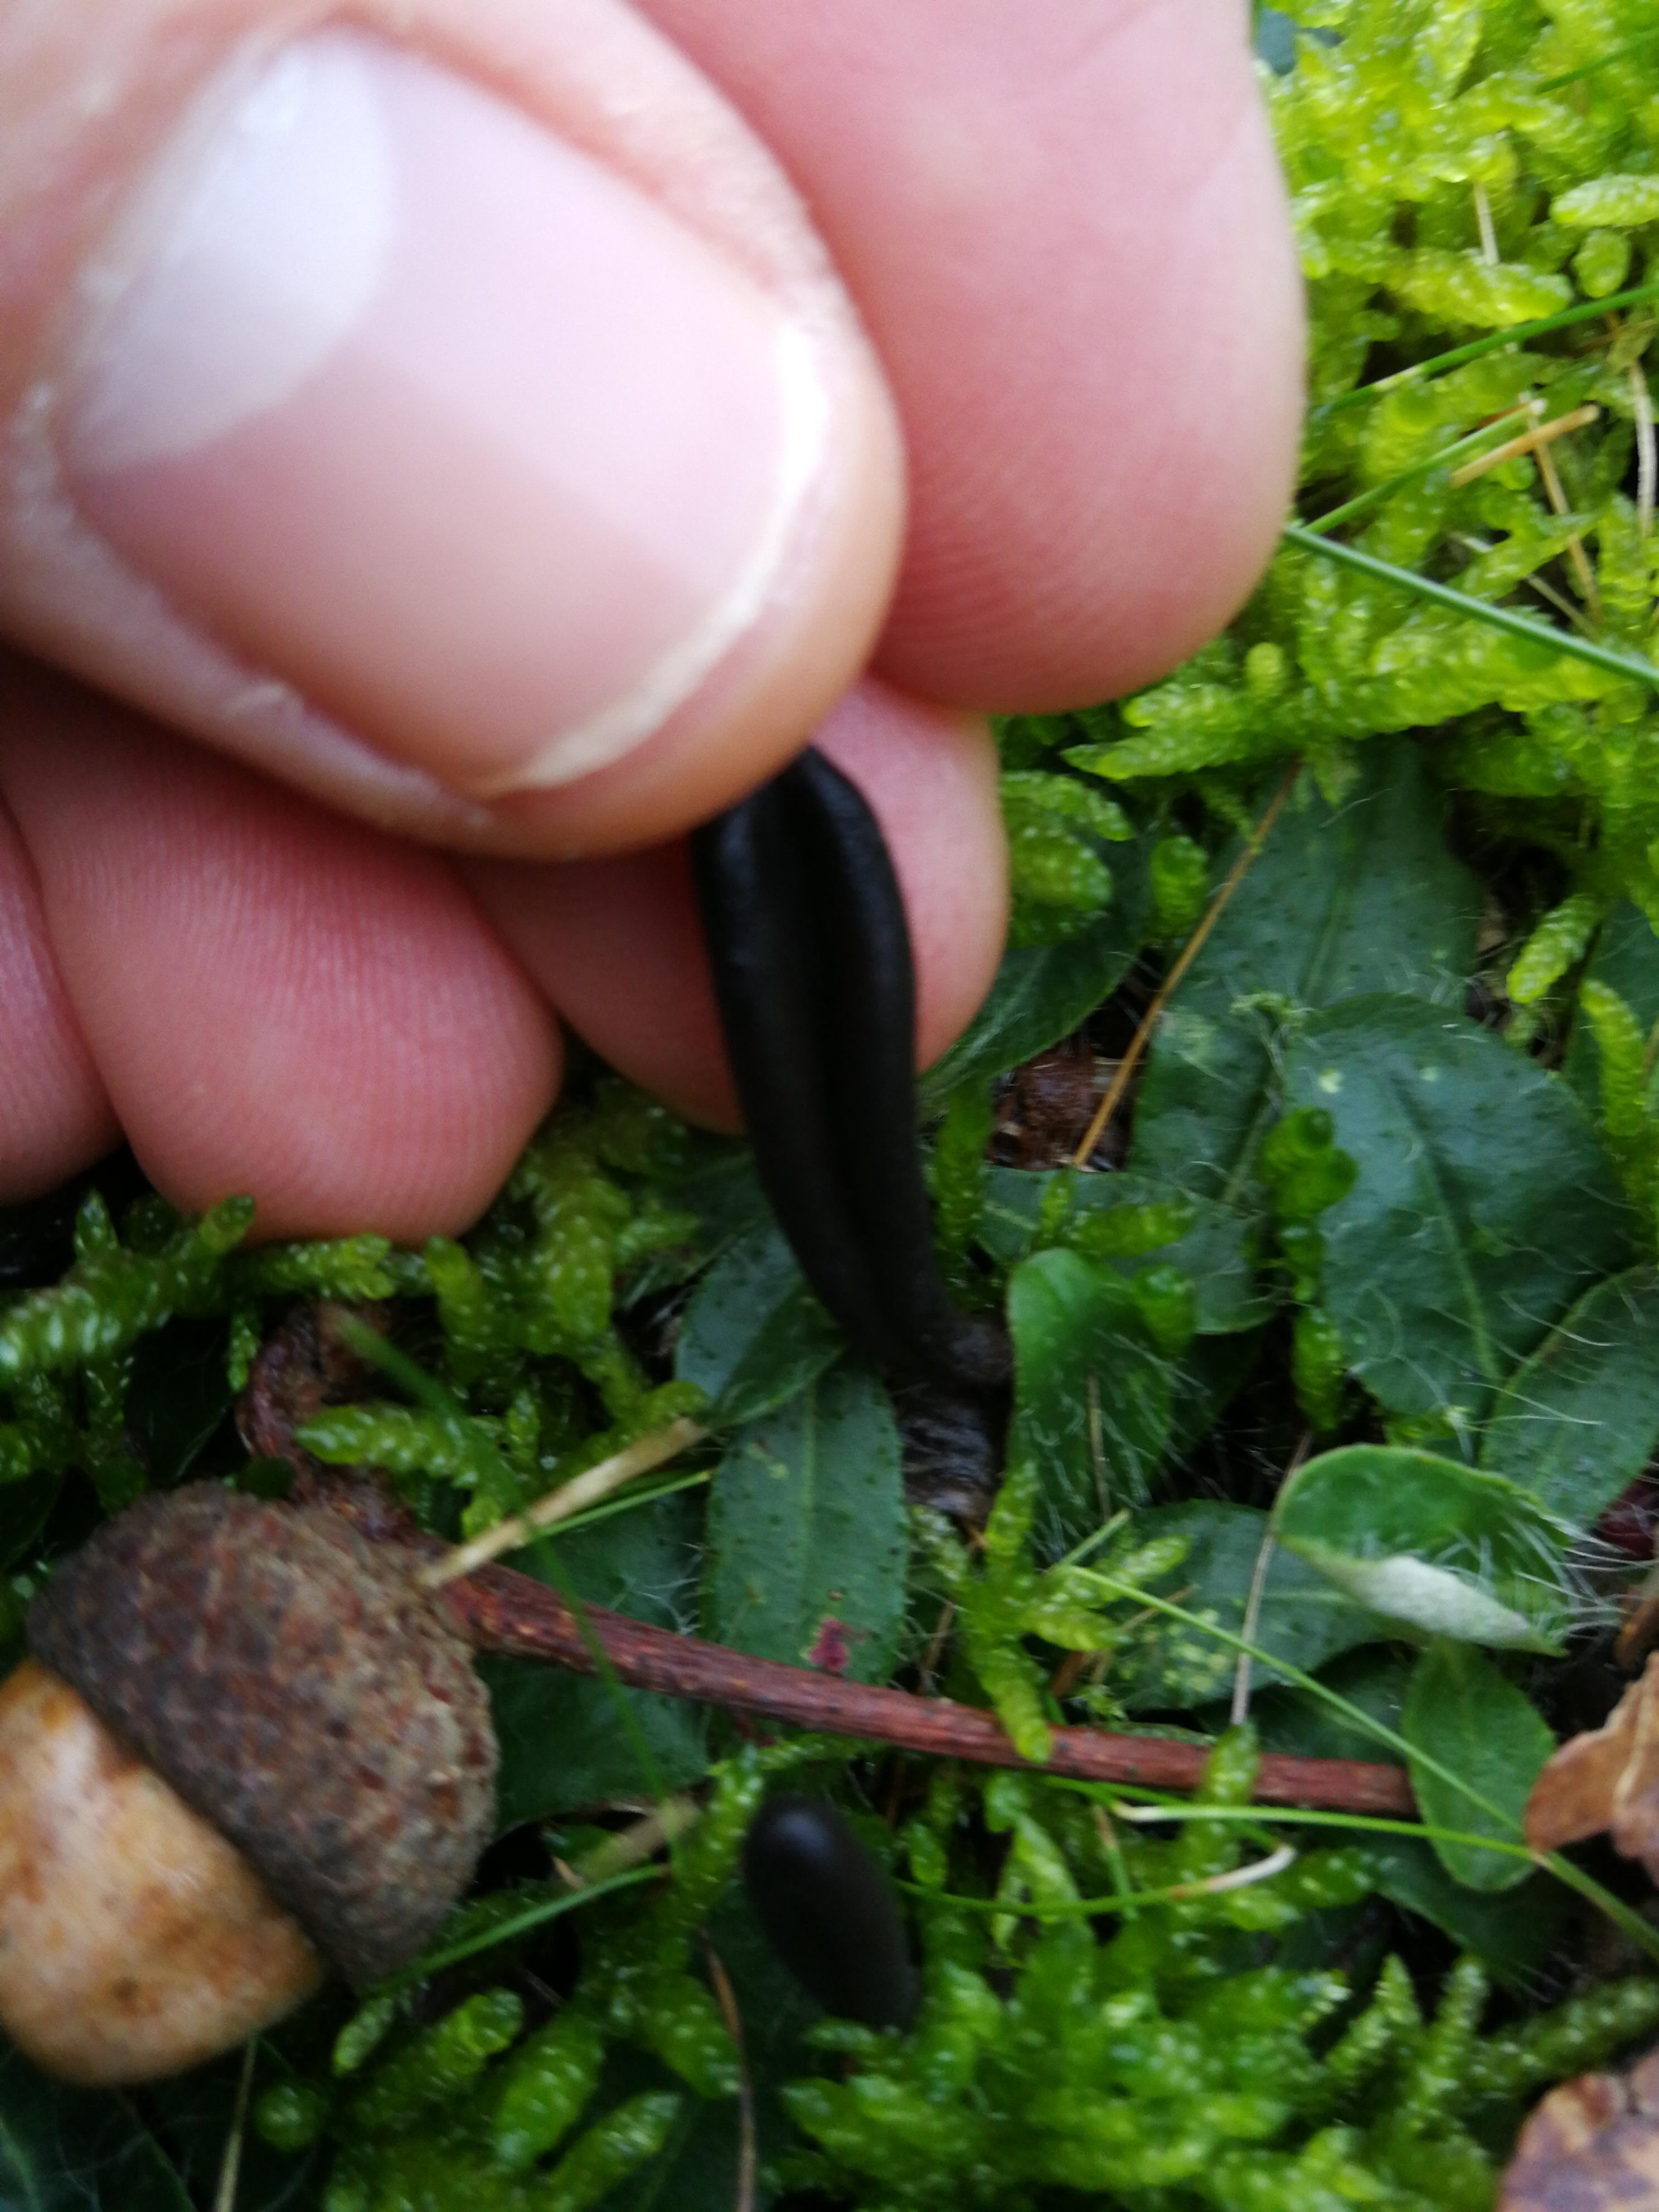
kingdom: Fungi
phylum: Ascomycota
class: Geoglossomycetes
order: Geoglossales
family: Geoglossaceae
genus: Geoglossum
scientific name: Geoglossum
